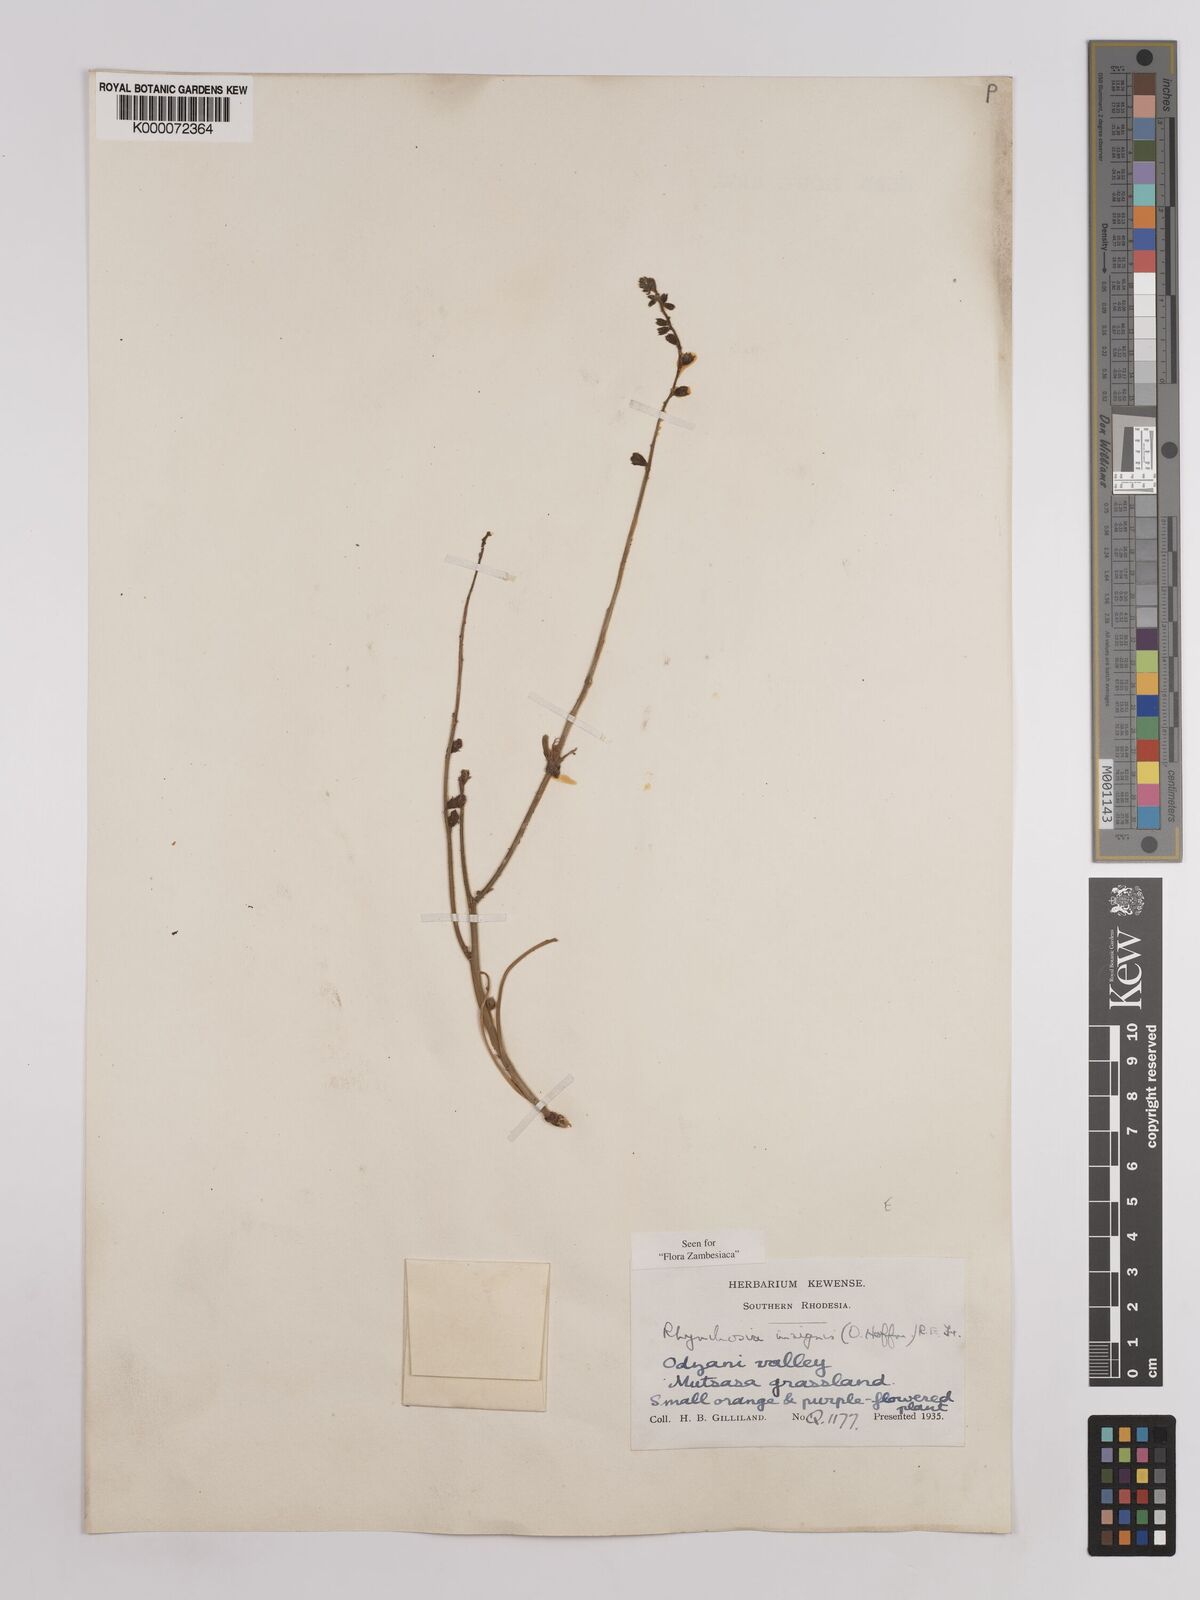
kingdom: Plantae
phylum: Tracheophyta
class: Magnoliopsida
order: Fabales
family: Fabaceae
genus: Rhynchosia
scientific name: Rhynchosia insignis
